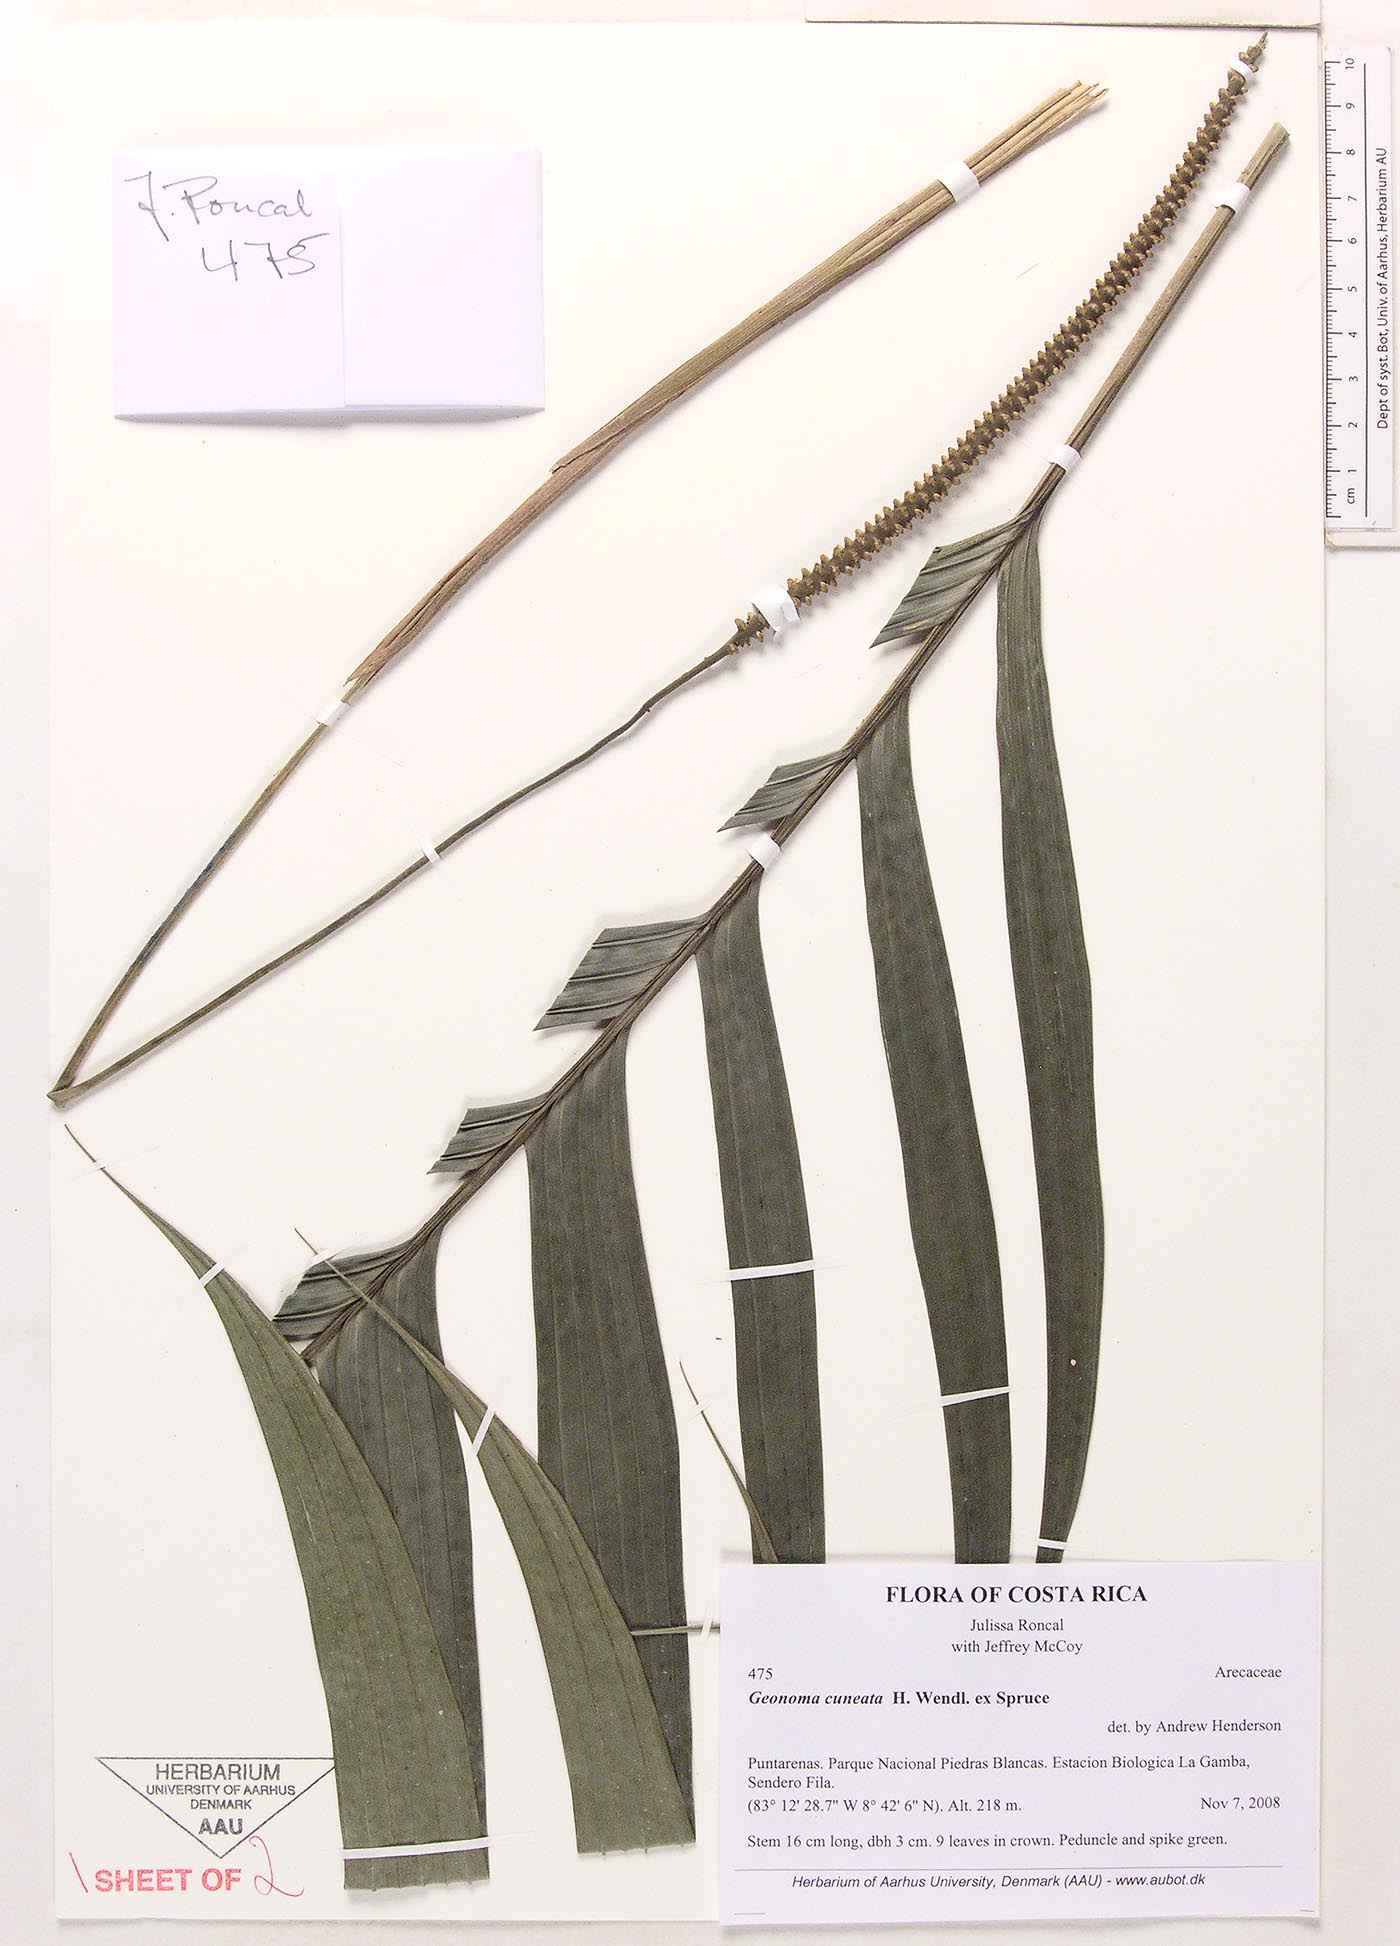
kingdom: Plantae
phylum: Tracheophyta
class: Liliopsida
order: Arecales
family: Arecaceae
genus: Geonoma
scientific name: Geonoma cuneata
